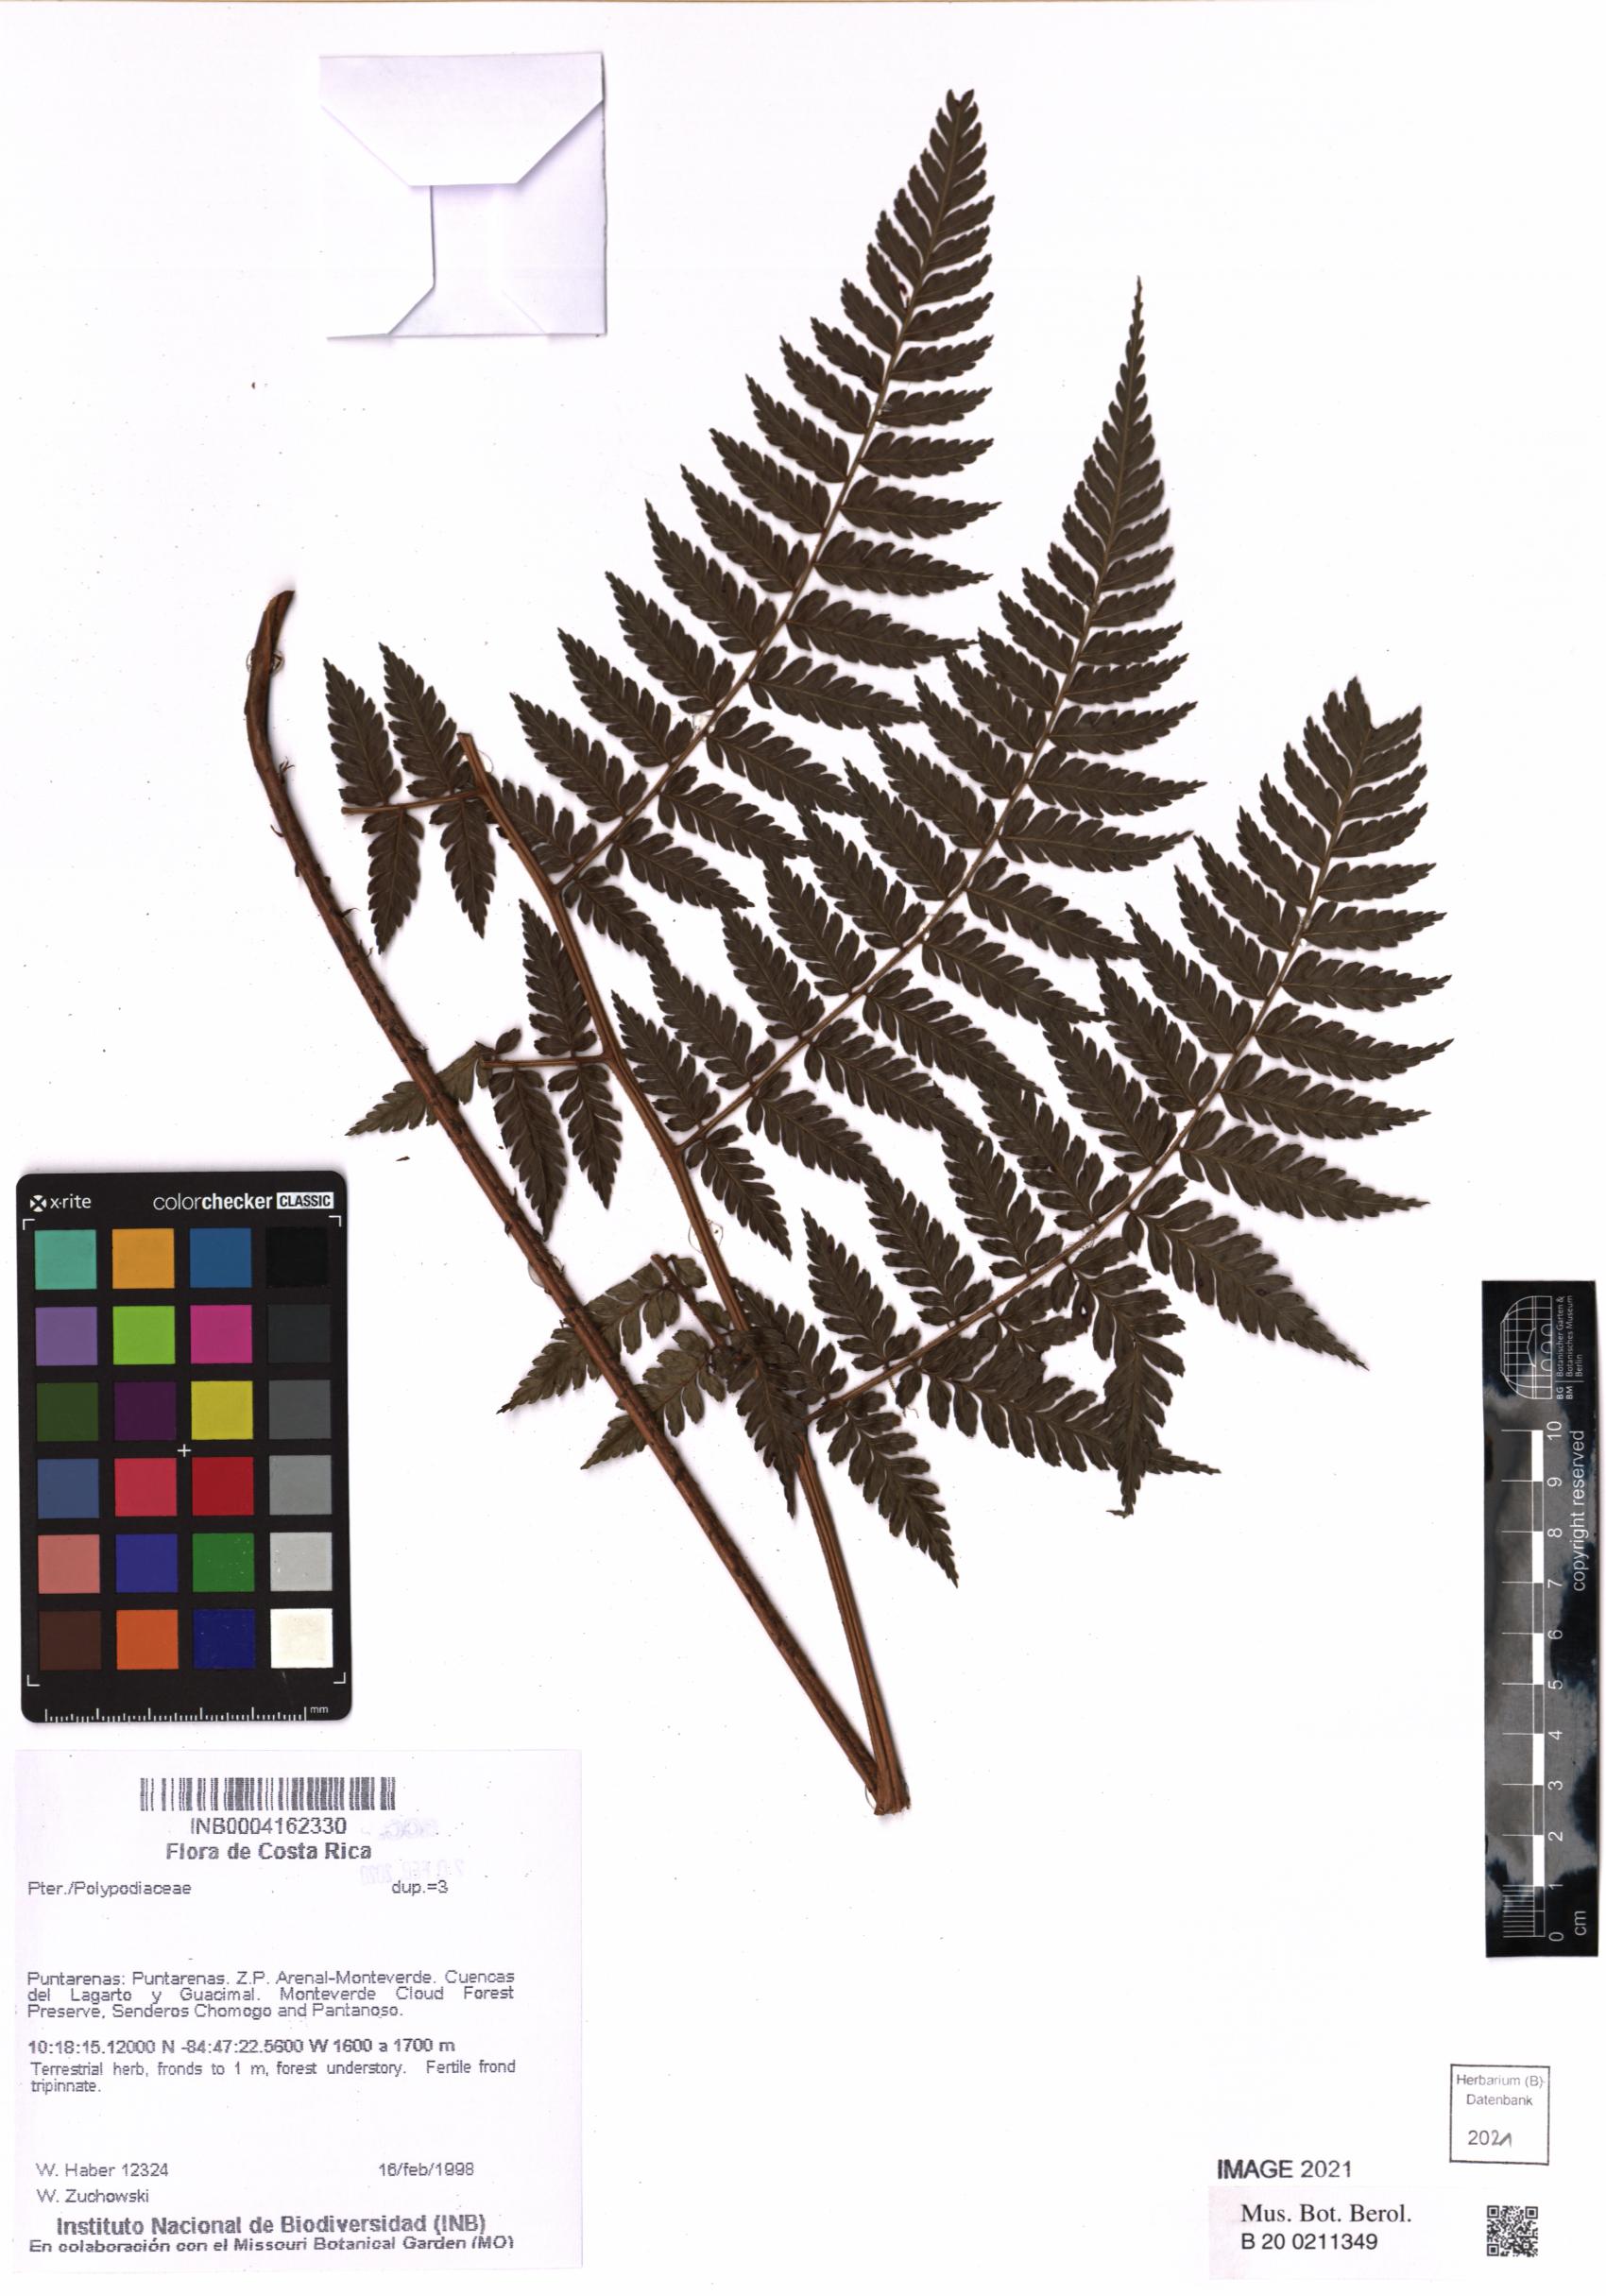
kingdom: Plantae
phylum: Tracheophyta
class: Polypodiopsida
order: Polypodiales
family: Polypodiaceae
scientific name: Polypodiaceae
